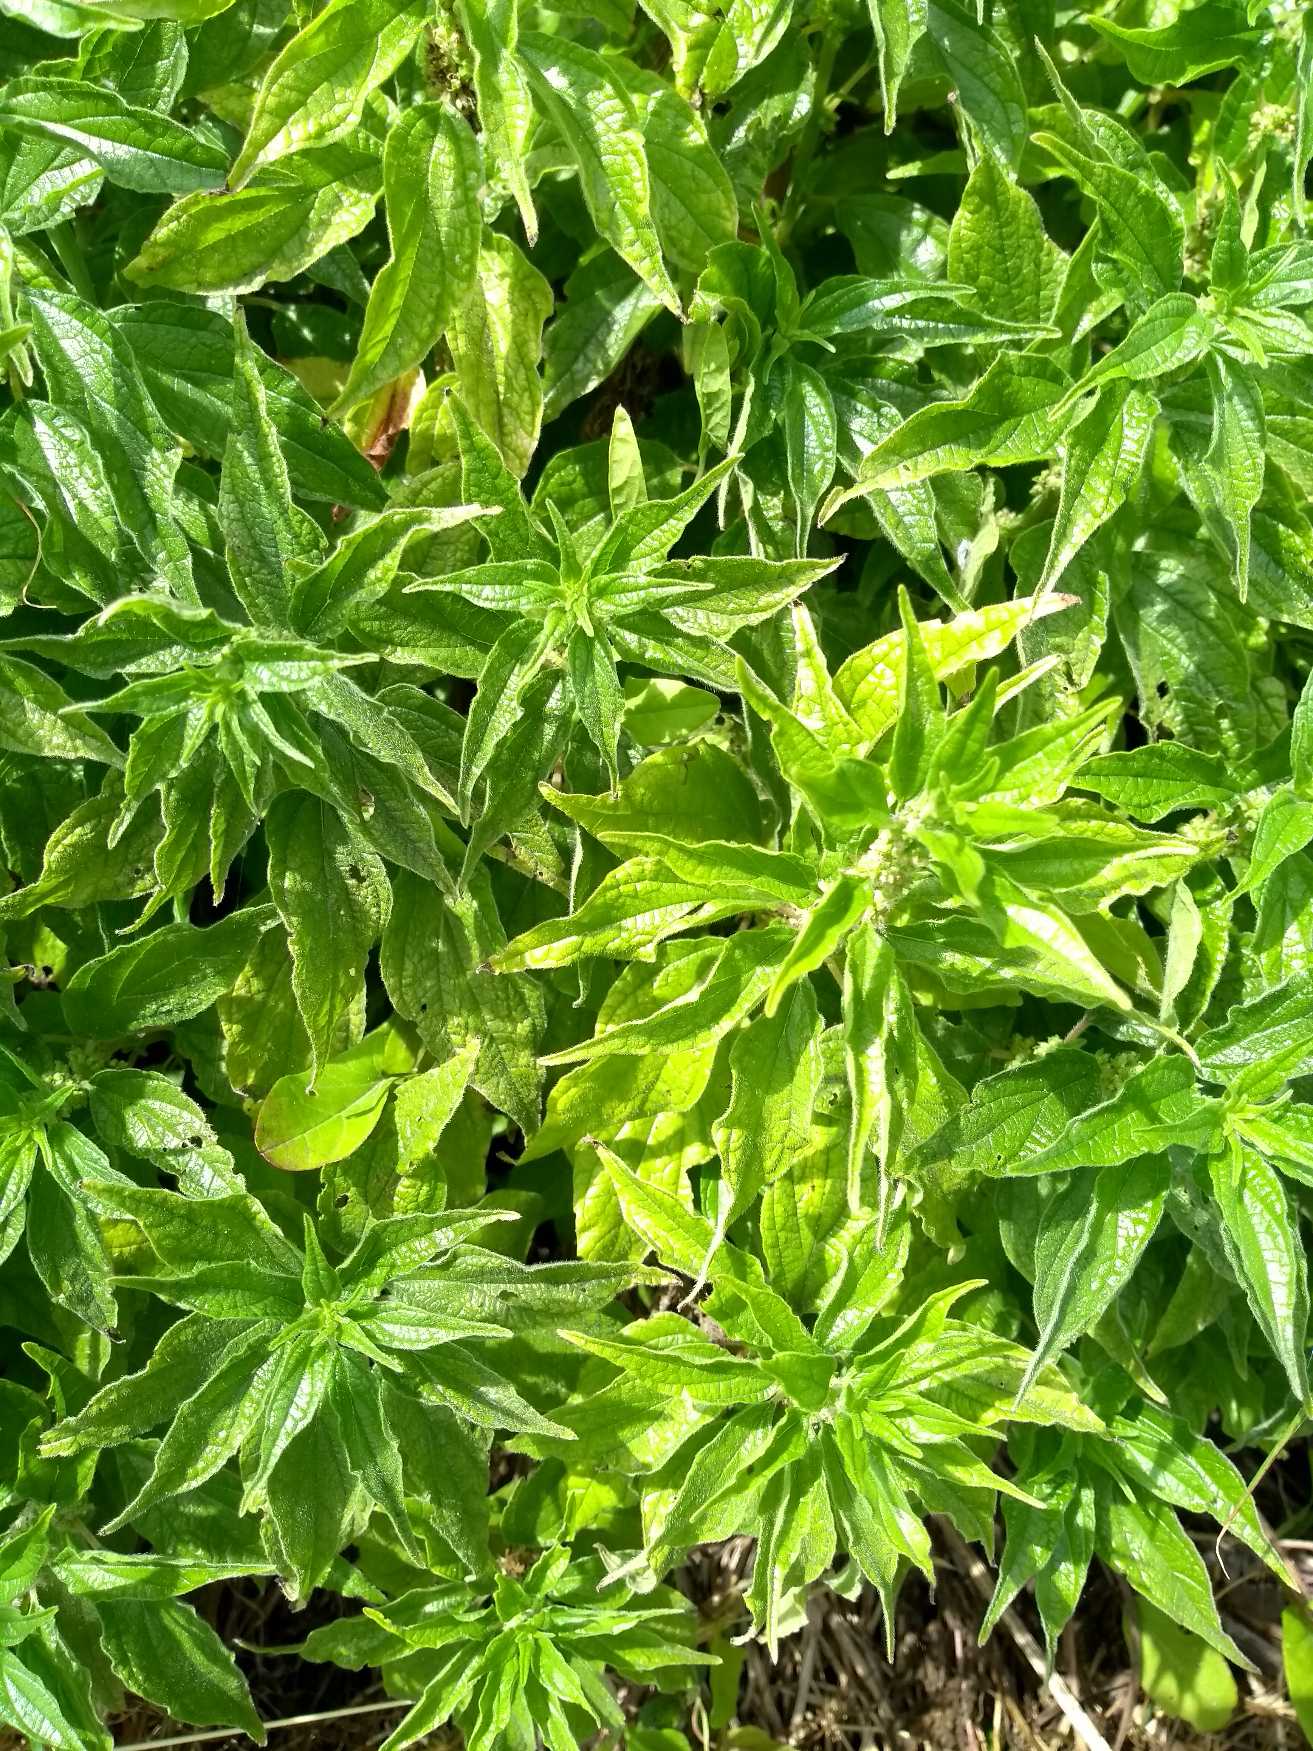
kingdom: Plantae
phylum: Tracheophyta
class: Magnoliopsida
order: Rosales
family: Urticaceae
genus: Parietaria
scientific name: Parietaria officinalis
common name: Almindelig springknap
